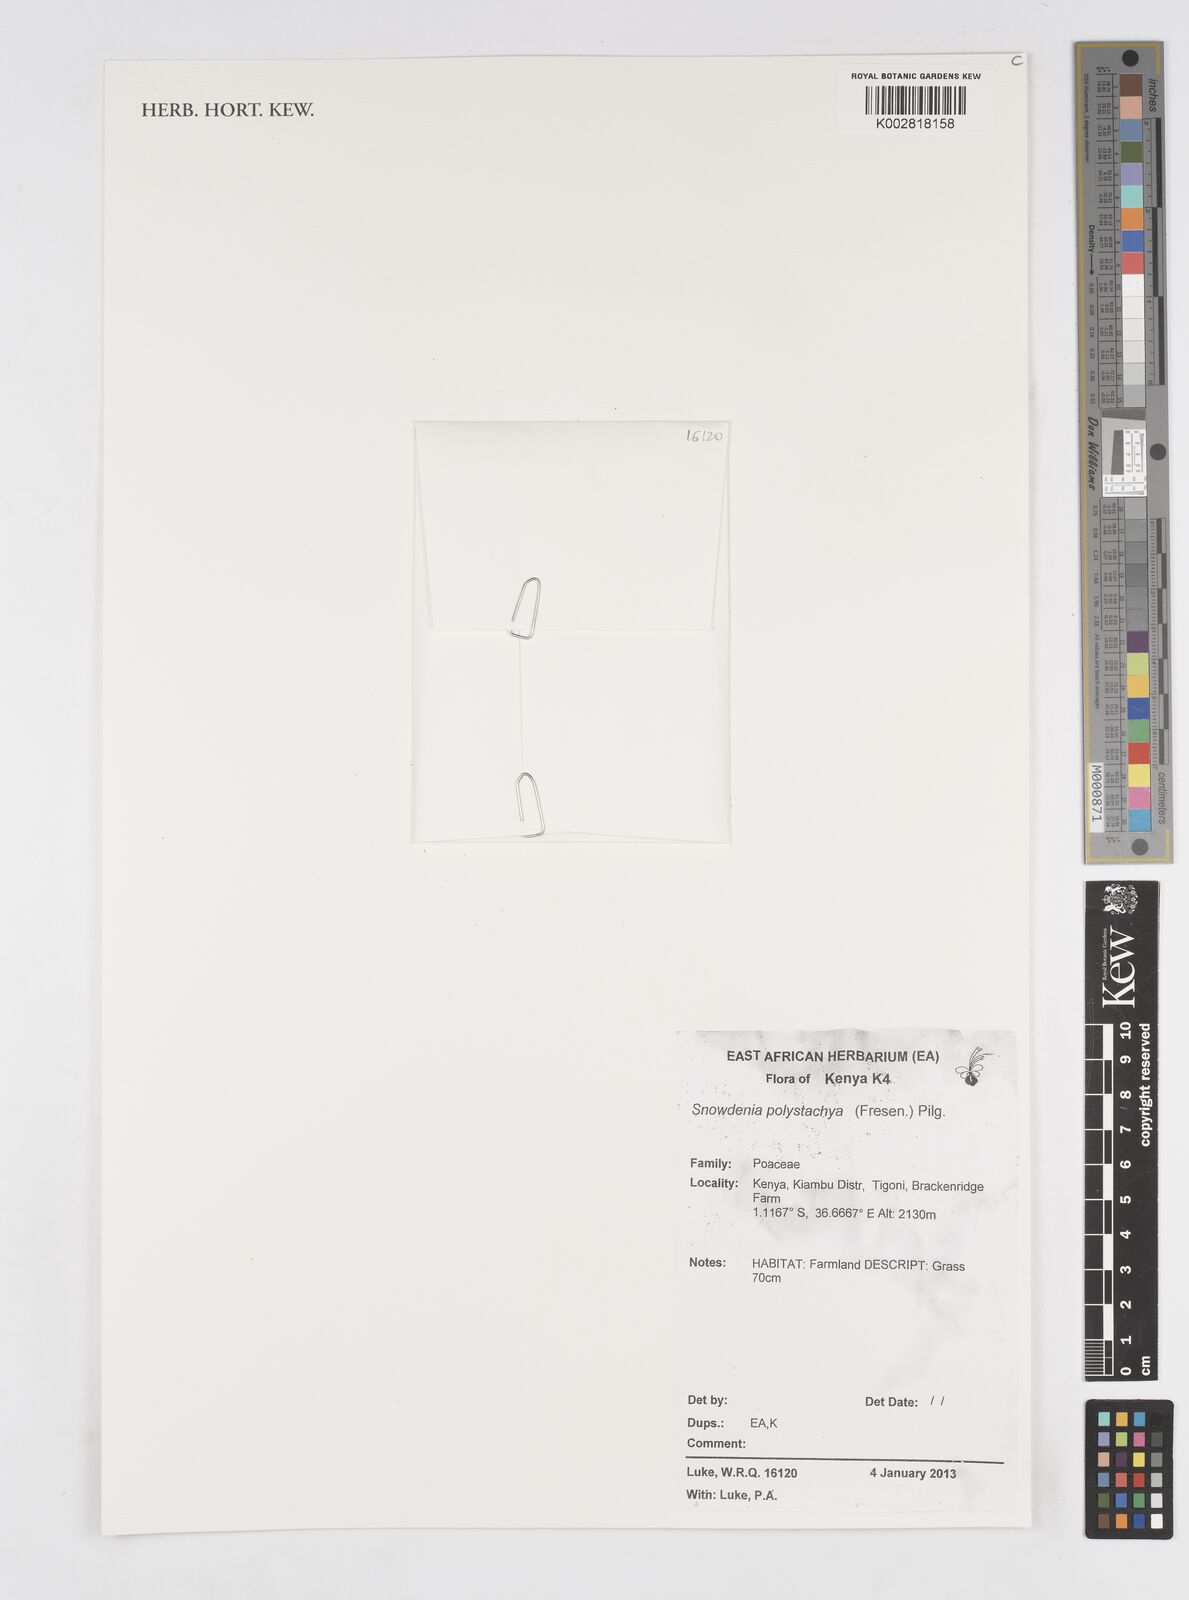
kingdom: Plantae
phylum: Tracheophyta
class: Liliopsida
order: Poales
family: Poaceae
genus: Snowdenia
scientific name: Snowdenia polystachya
